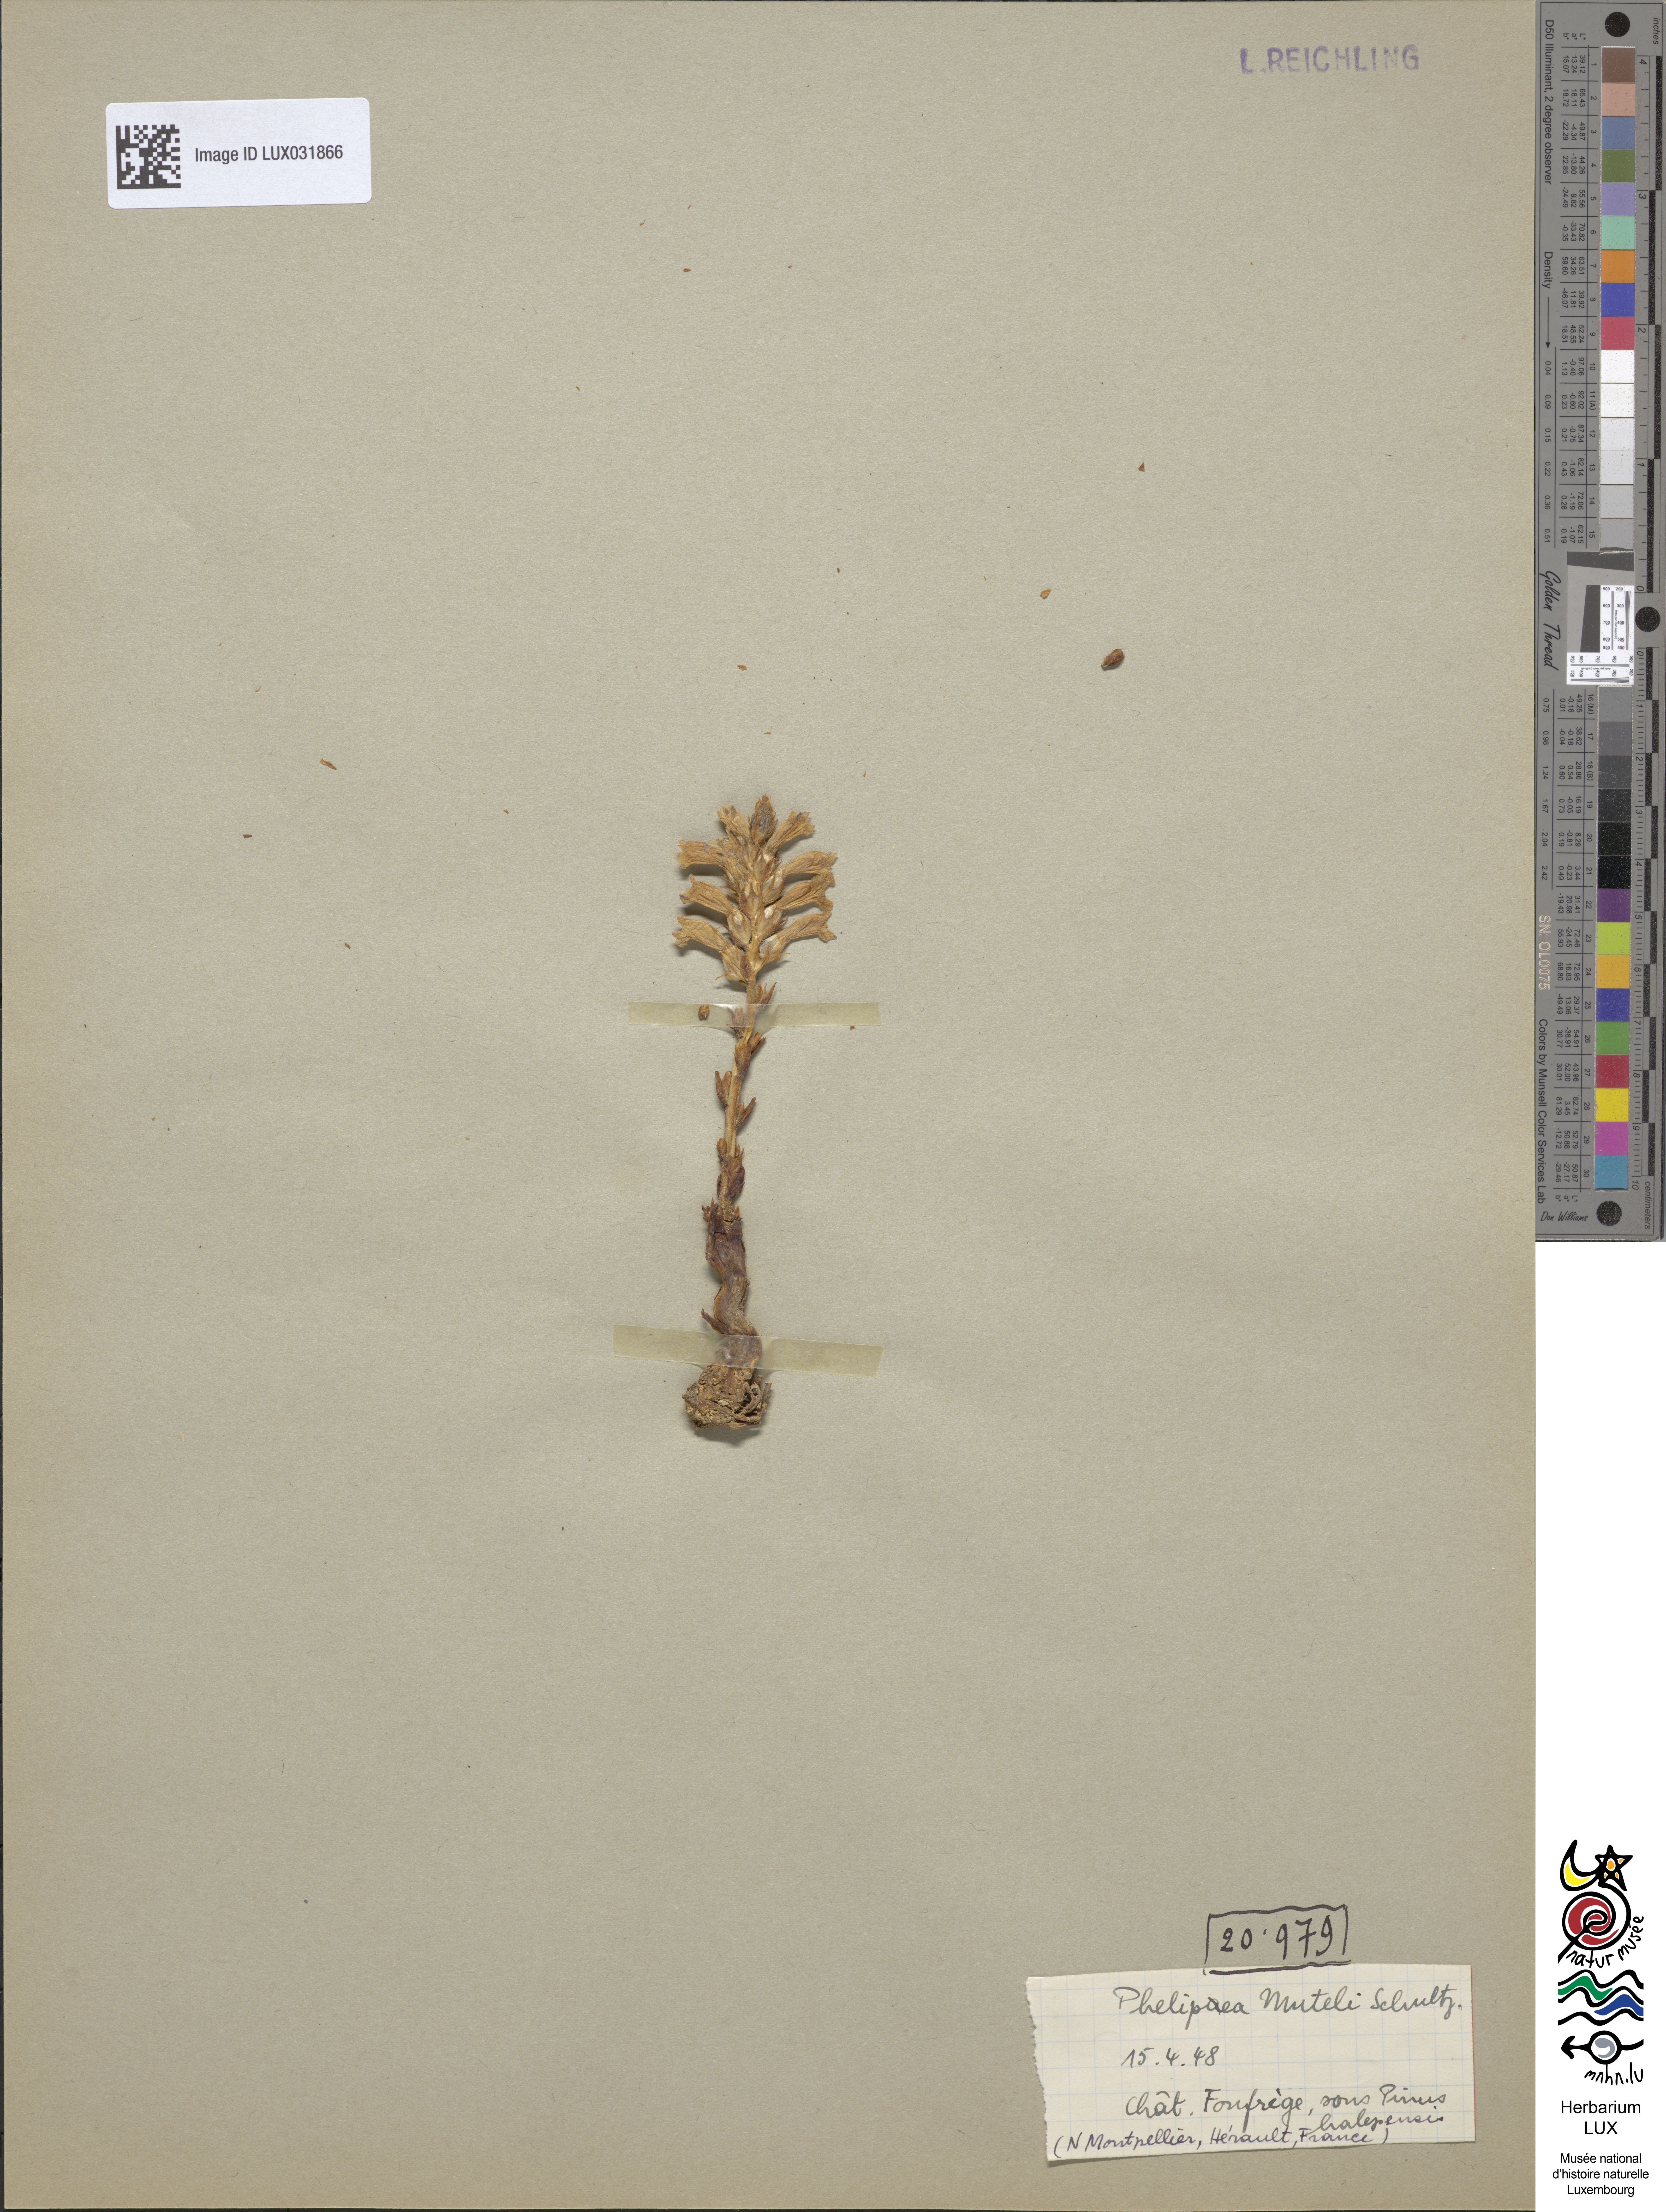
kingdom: Plantae
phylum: Tracheophyta
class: Magnoliopsida
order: Lamiales
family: Orobanchaceae
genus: Phelipanche
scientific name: Phelipanche mutelii
